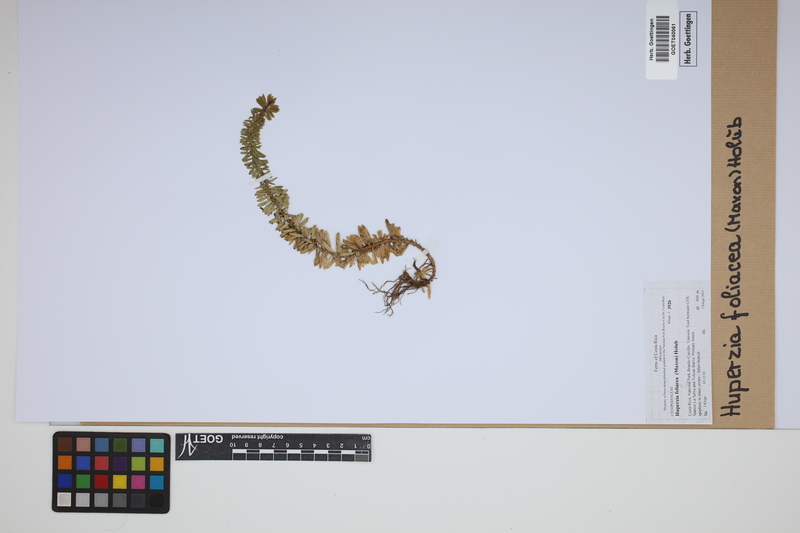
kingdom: Plantae
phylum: Tracheophyta
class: Lycopodiopsida
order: Lycopodiales
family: Lycopodiaceae
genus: Phlegmariurus
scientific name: Phlegmariurus foliaceus
